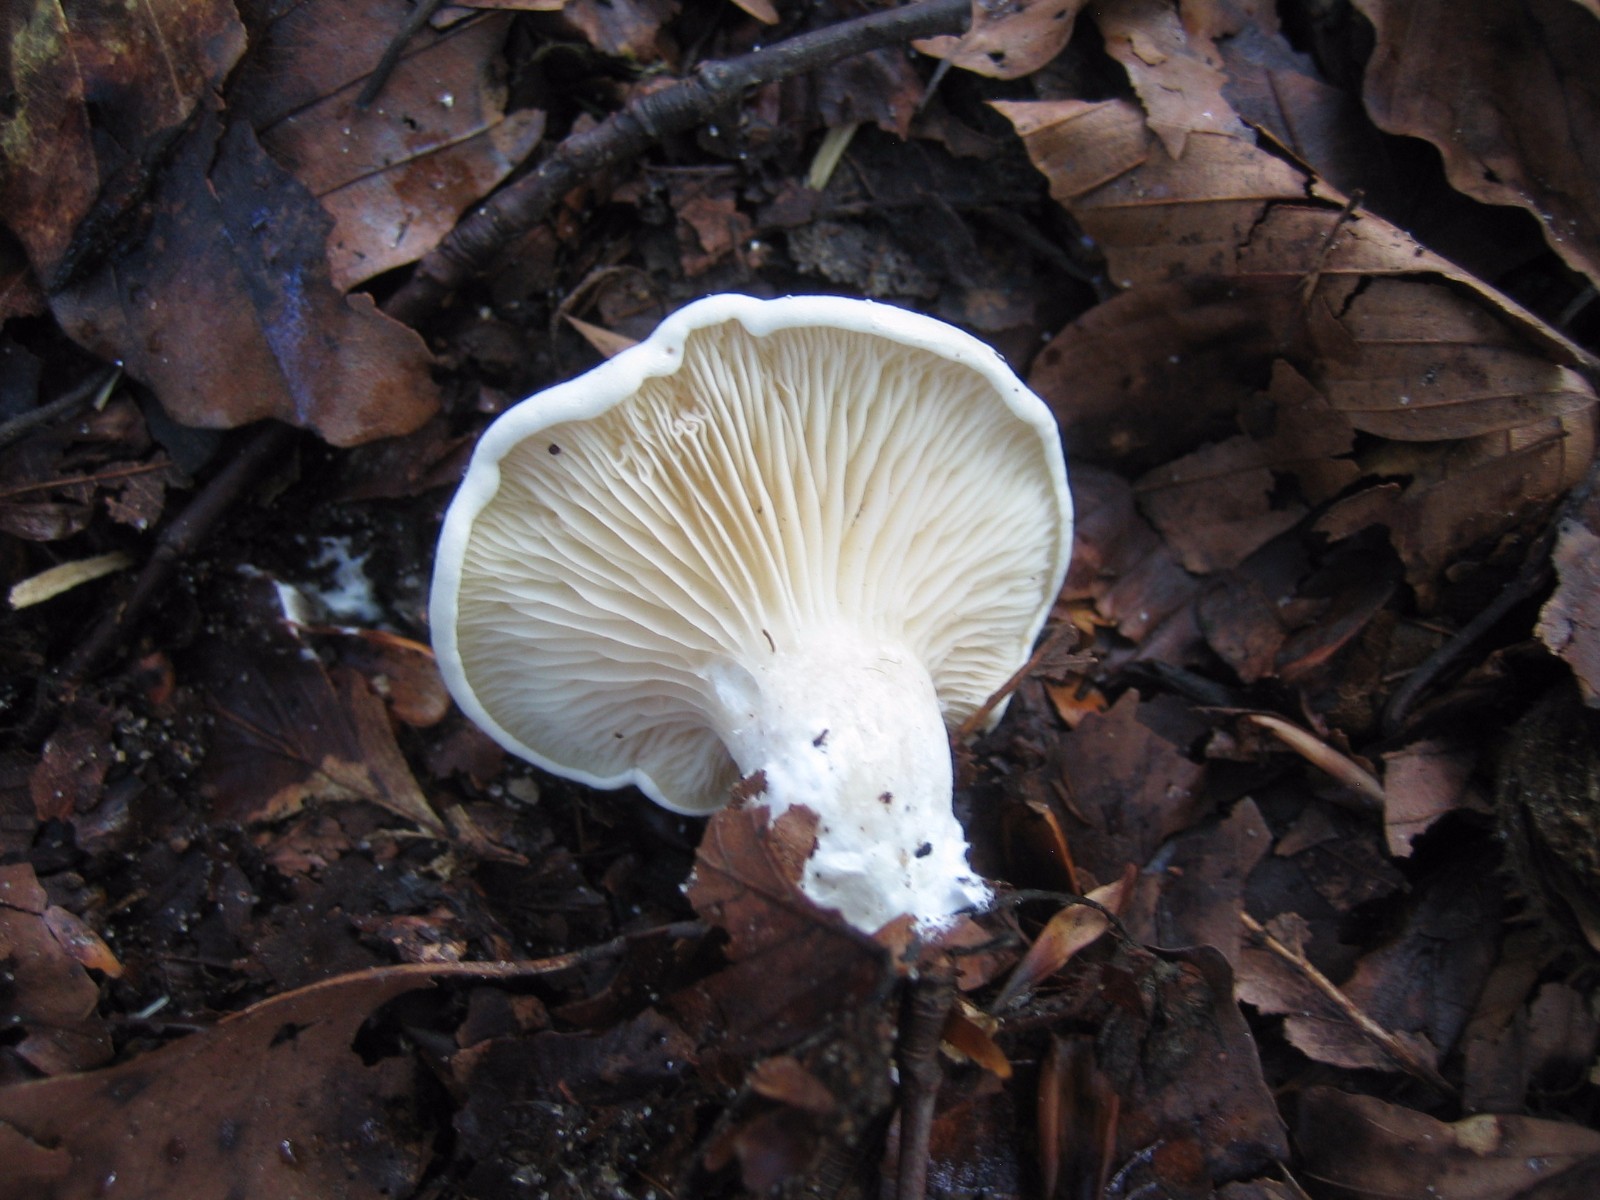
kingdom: Fungi
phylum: Basidiomycota
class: Agaricomycetes
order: Agaricales
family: Entolomataceae
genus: Clitopilus
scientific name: Clitopilus prunulus
